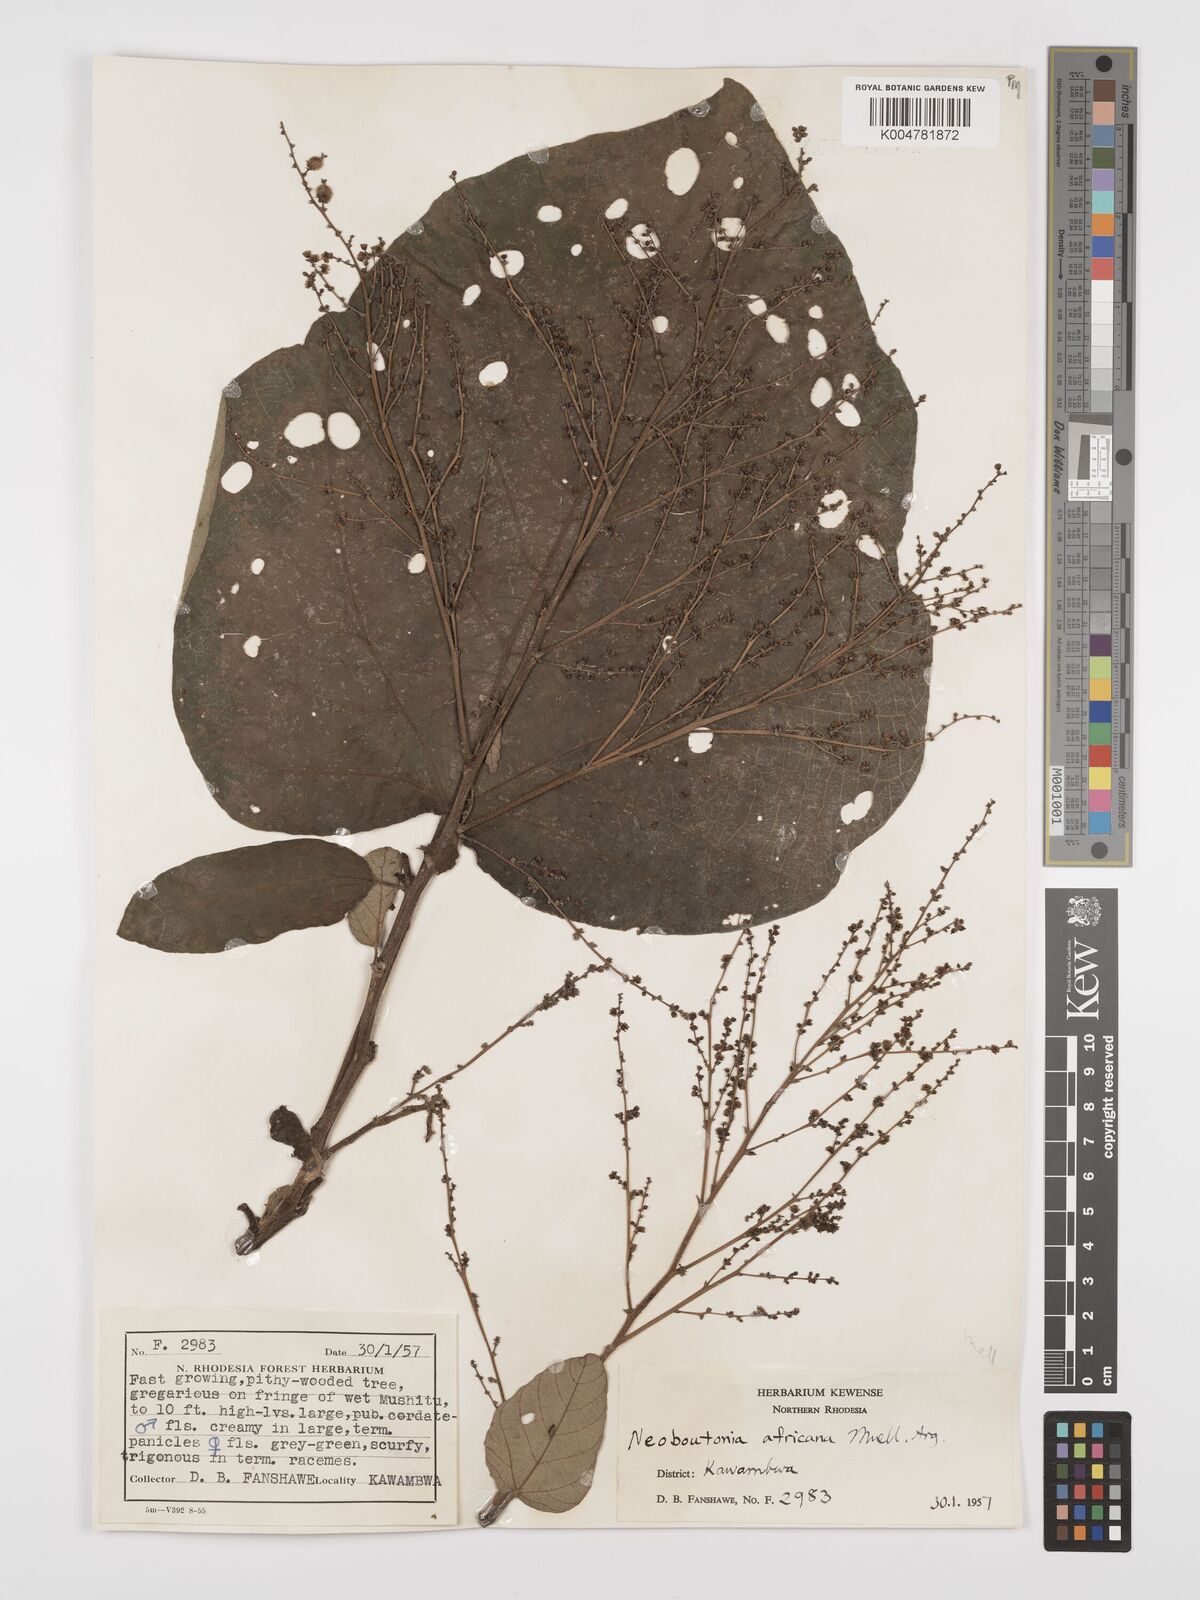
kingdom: Plantae
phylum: Tracheophyta
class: Magnoliopsida
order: Malpighiales
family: Euphorbiaceae
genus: Neoboutonia
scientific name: Neoboutonia melleri
